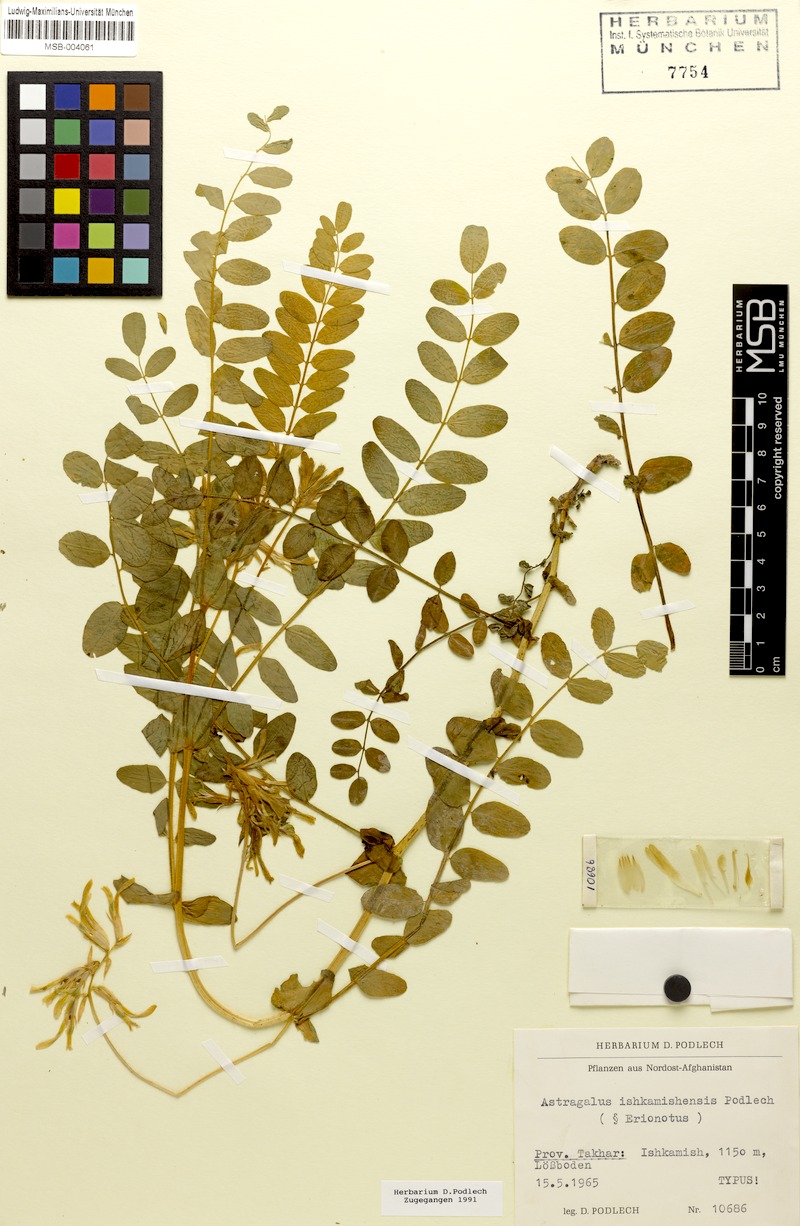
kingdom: Plantae
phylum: Tracheophyta
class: Magnoliopsida
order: Fabales
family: Fabaceae
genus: Astragalus
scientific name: Astragalus ishkamishensis
